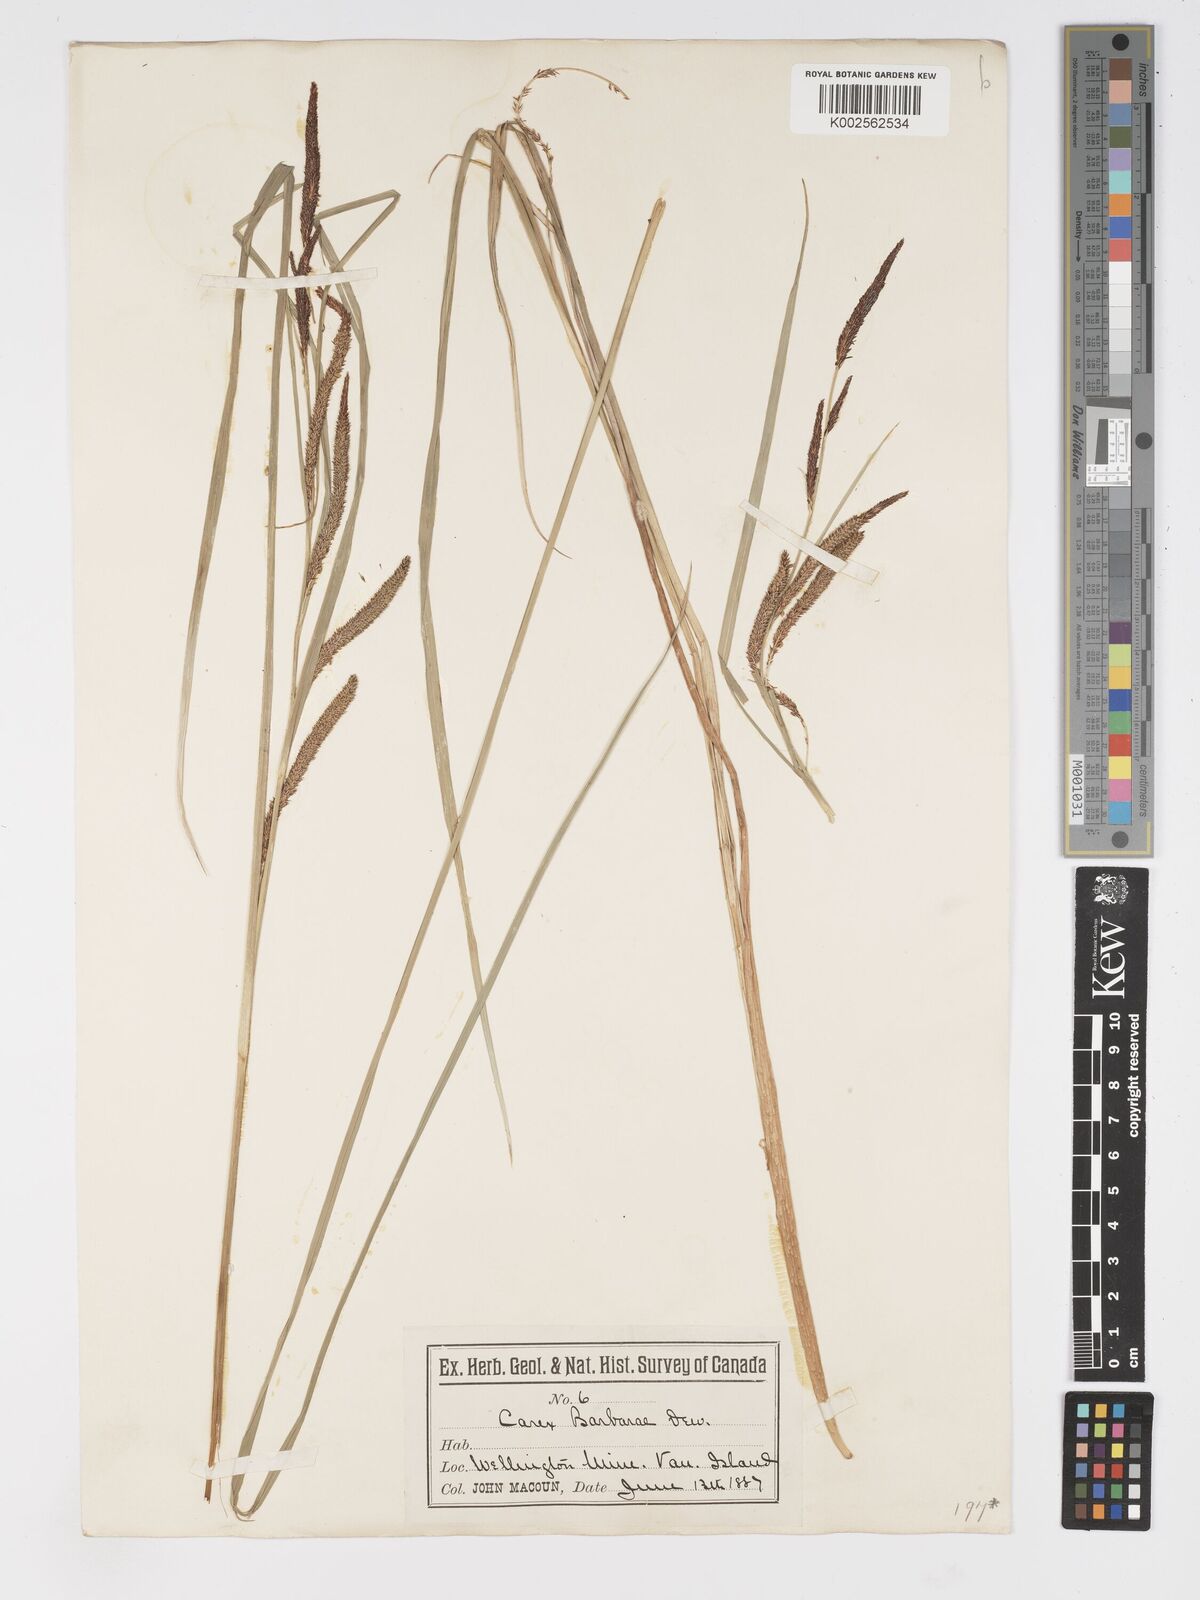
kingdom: Plantae
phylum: Tracheophyta
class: Liliopsida
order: Poales
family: Cyperaceae
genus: Carex
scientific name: Carex schottii
